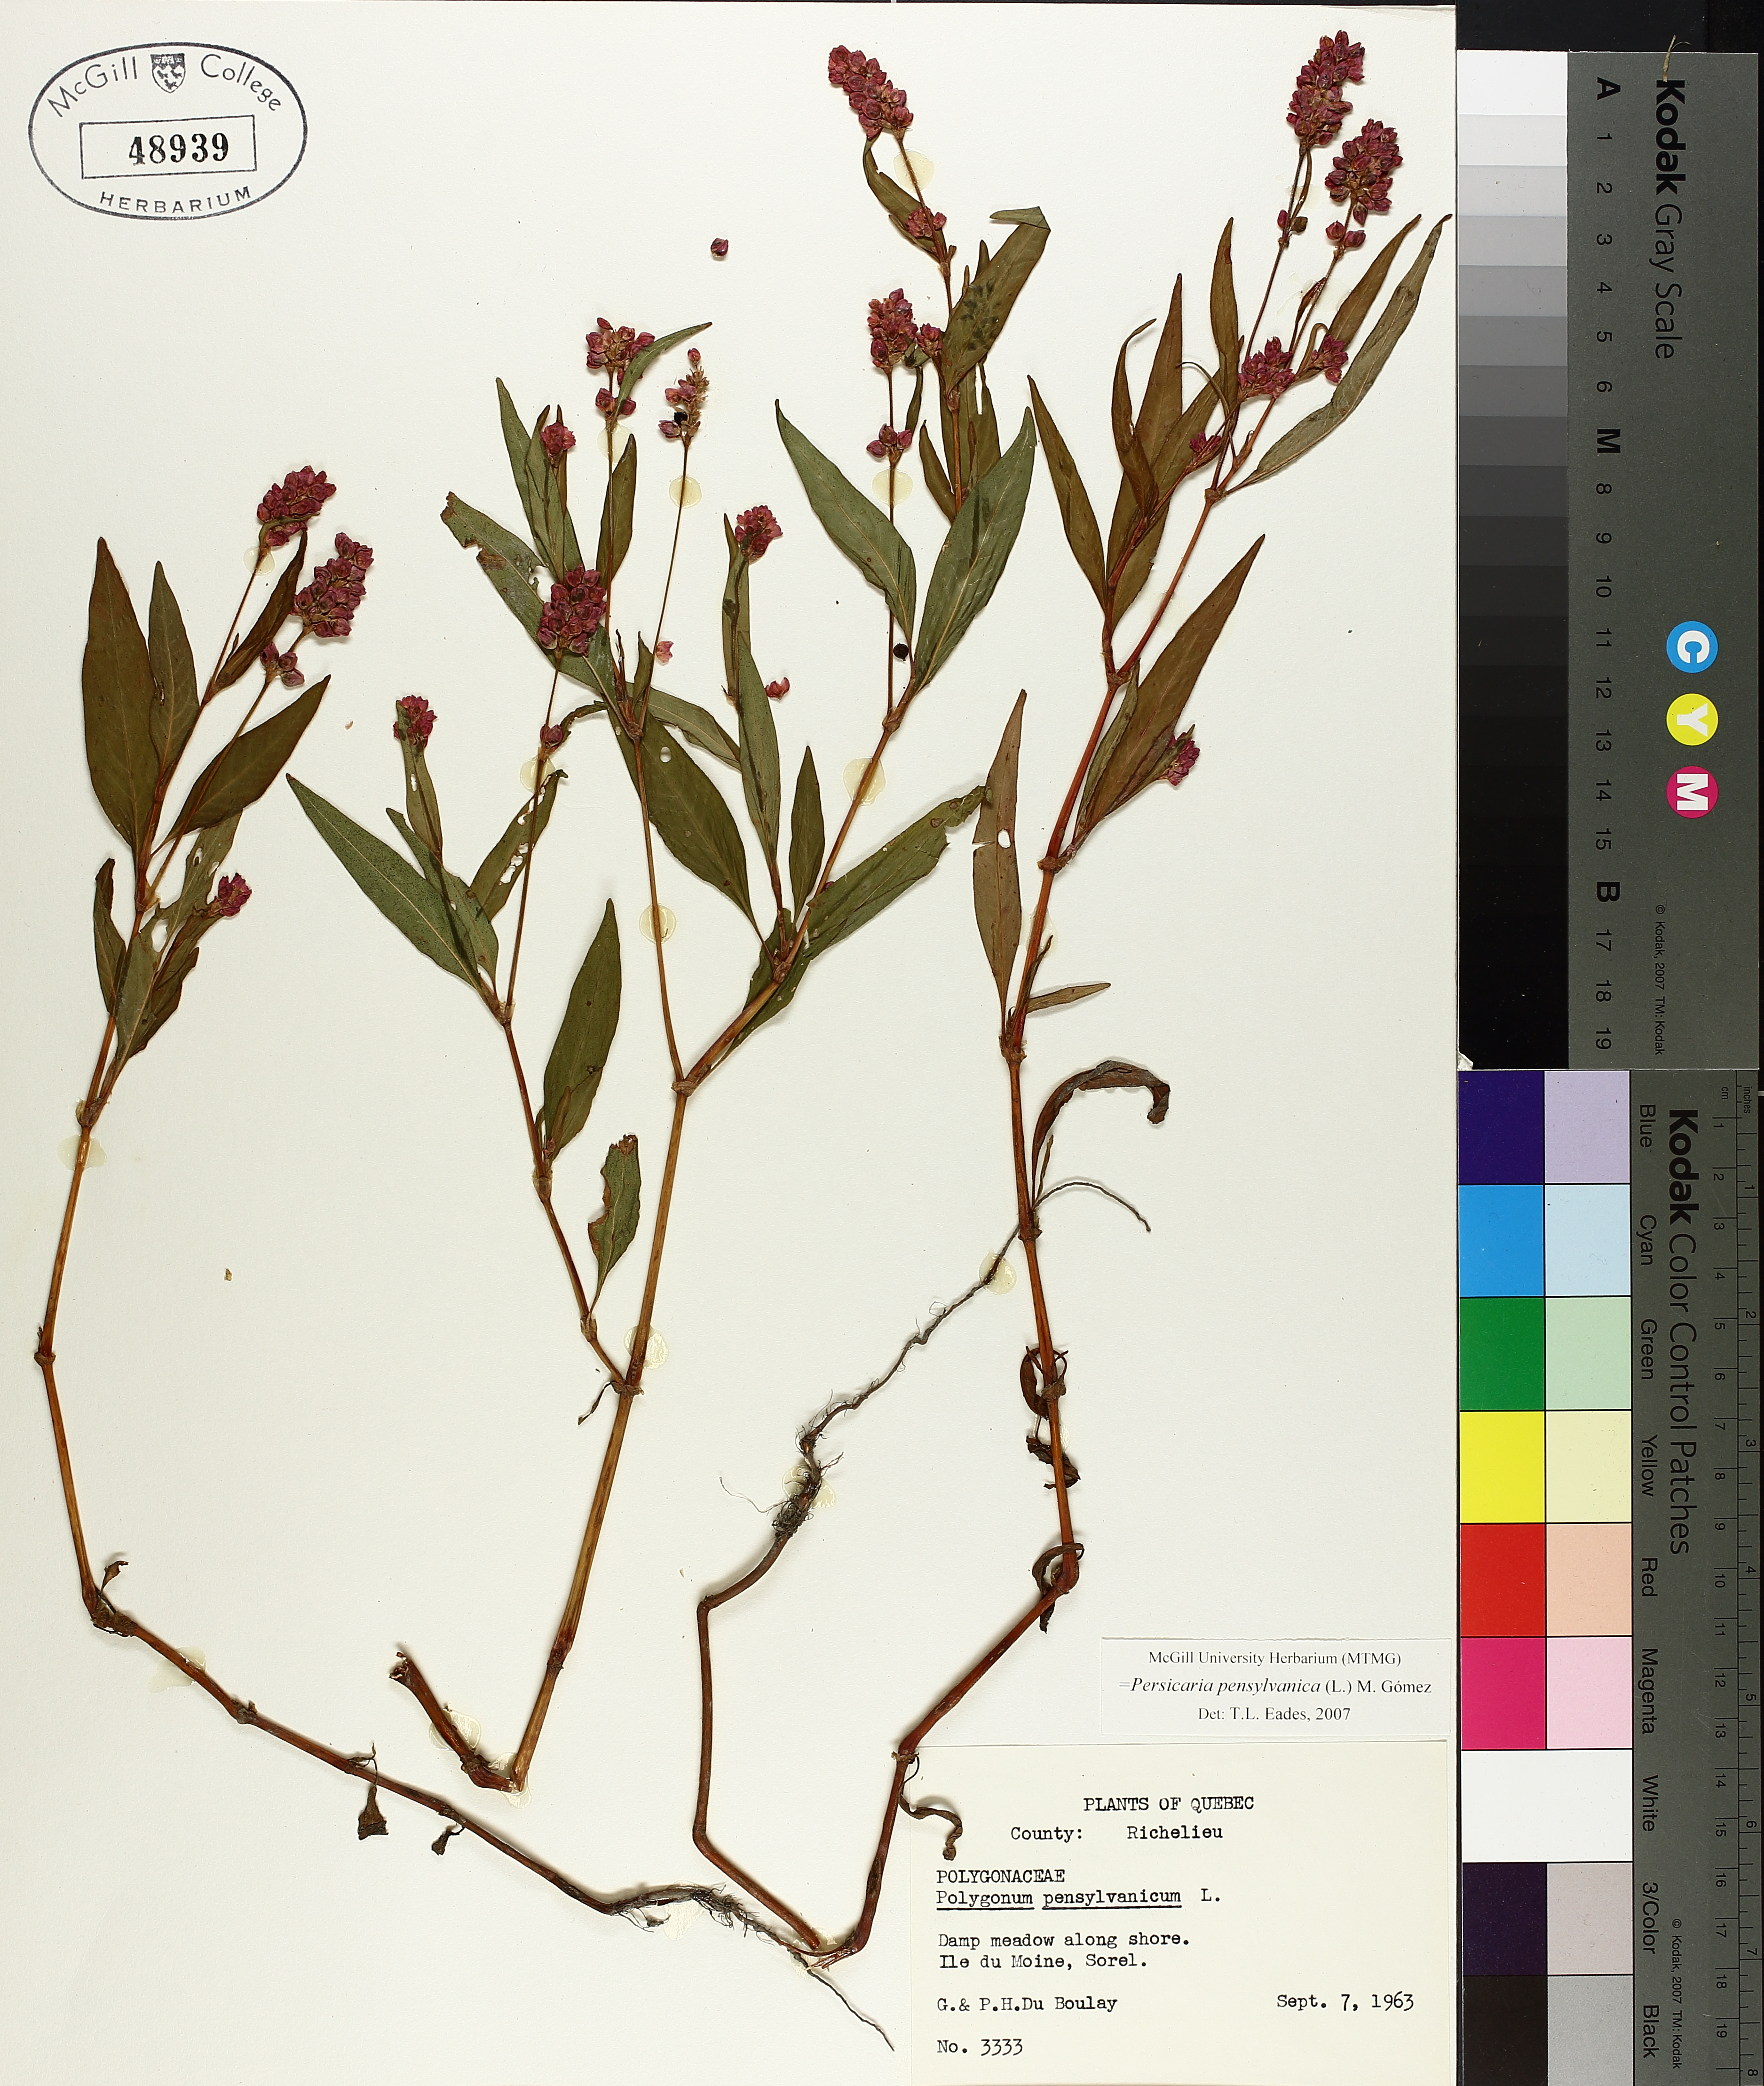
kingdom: Plantae
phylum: Tracheophyta
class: Magnoliopsida
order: Caryophyllales
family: Polygonaceae
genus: Persicaria
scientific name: Persicaria bungeana
